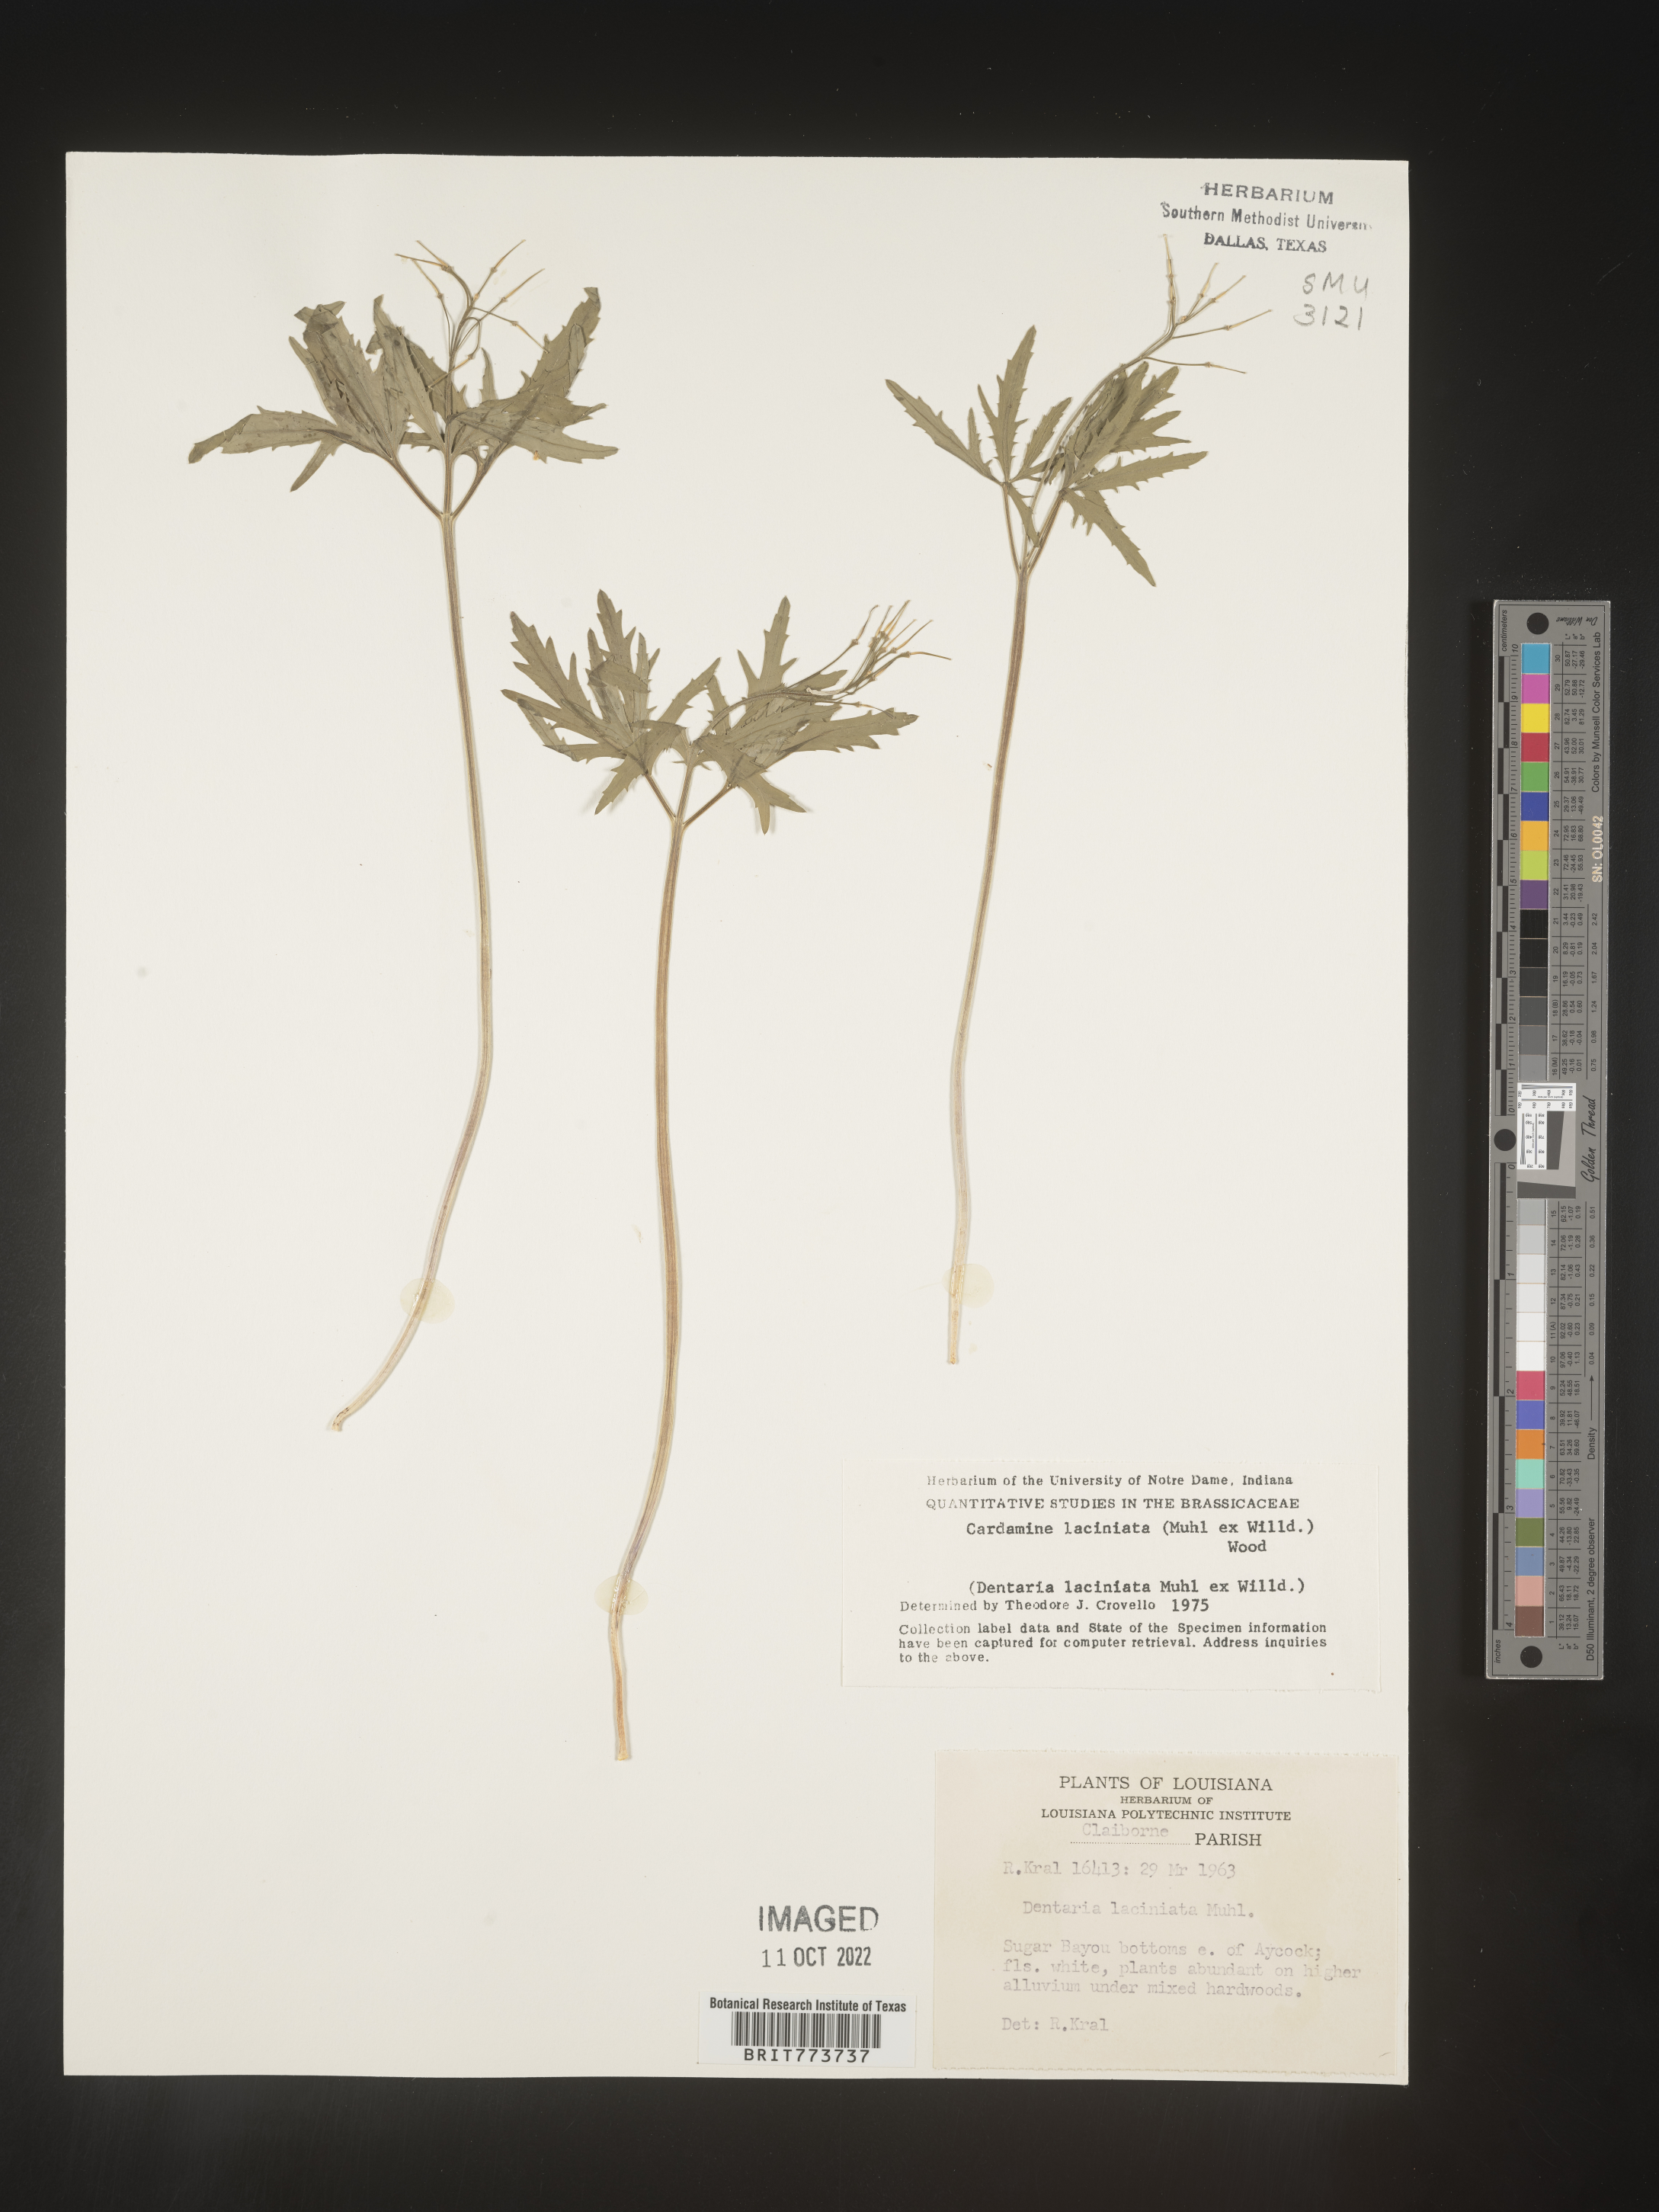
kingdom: Plantae
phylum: Tracheophyta
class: Magnoliopsida
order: Brassicales
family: Brassicaceae
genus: Rorippa
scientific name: Rorippa laciniata
